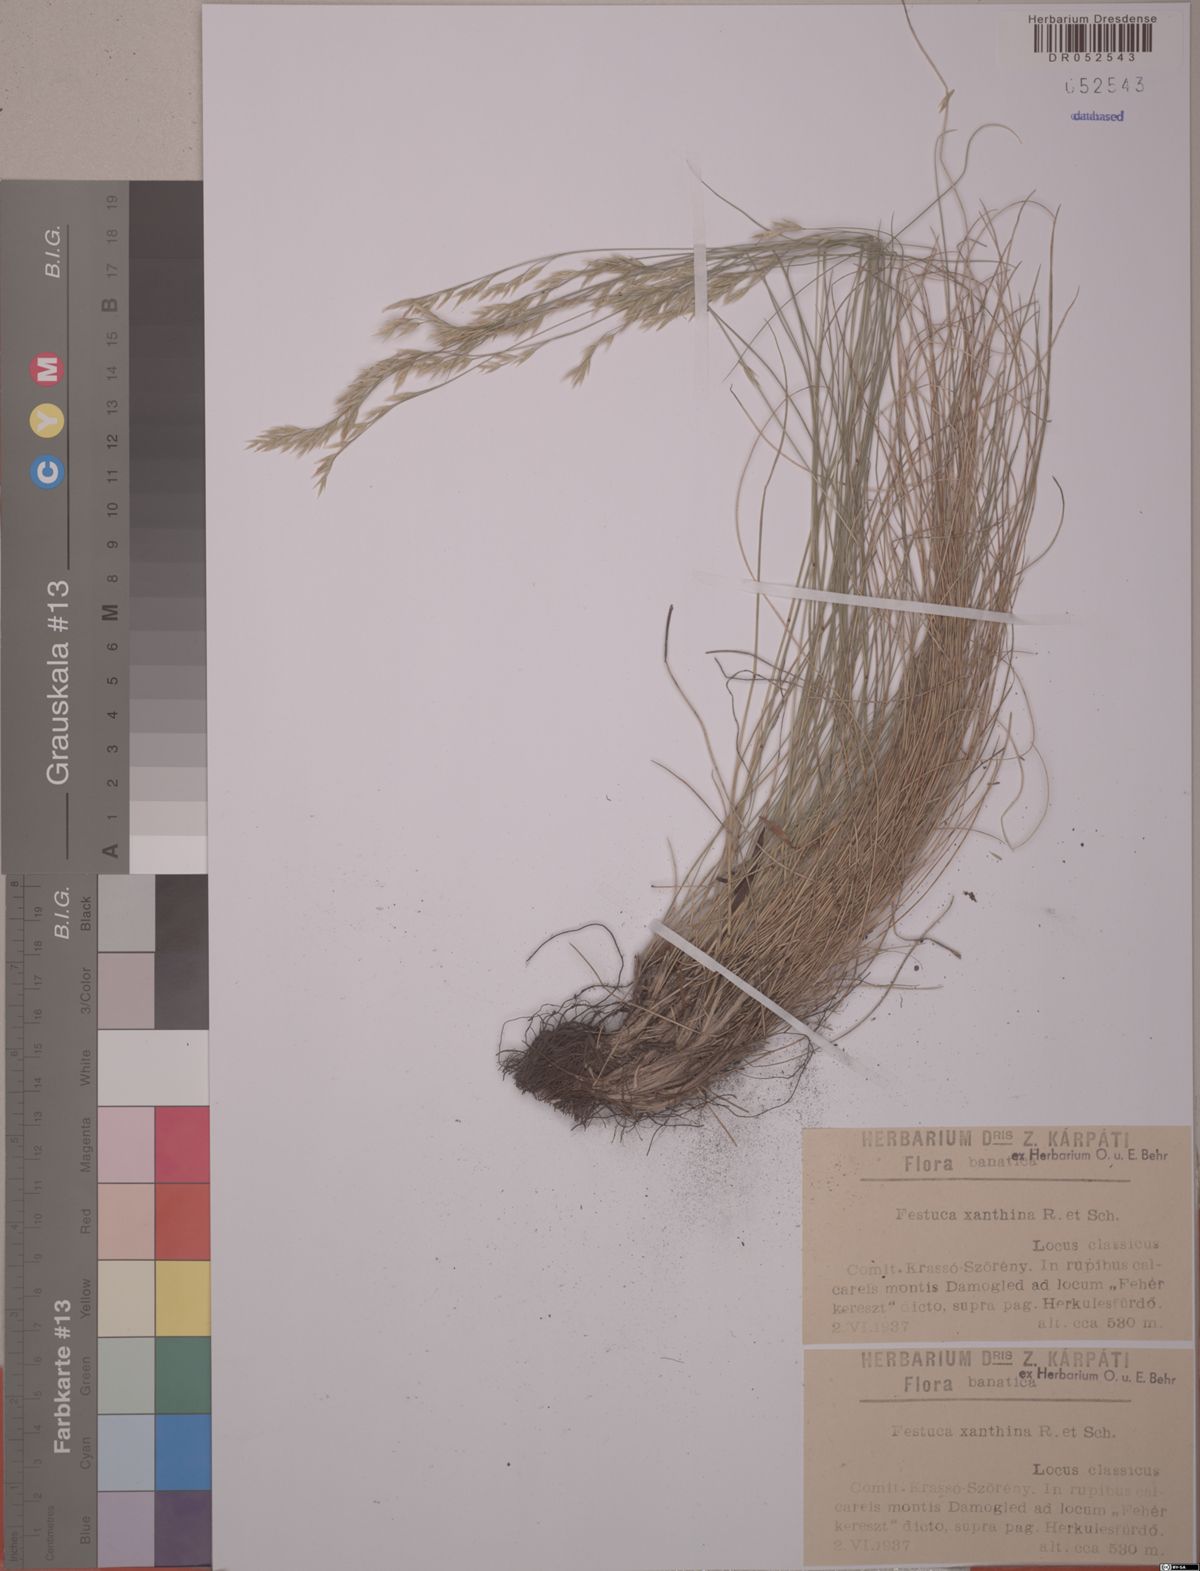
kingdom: Plantae
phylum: Tracheophyta
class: Liliopsida
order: Poales
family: Poaceae
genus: Festuca
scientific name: Festuca xanthina
